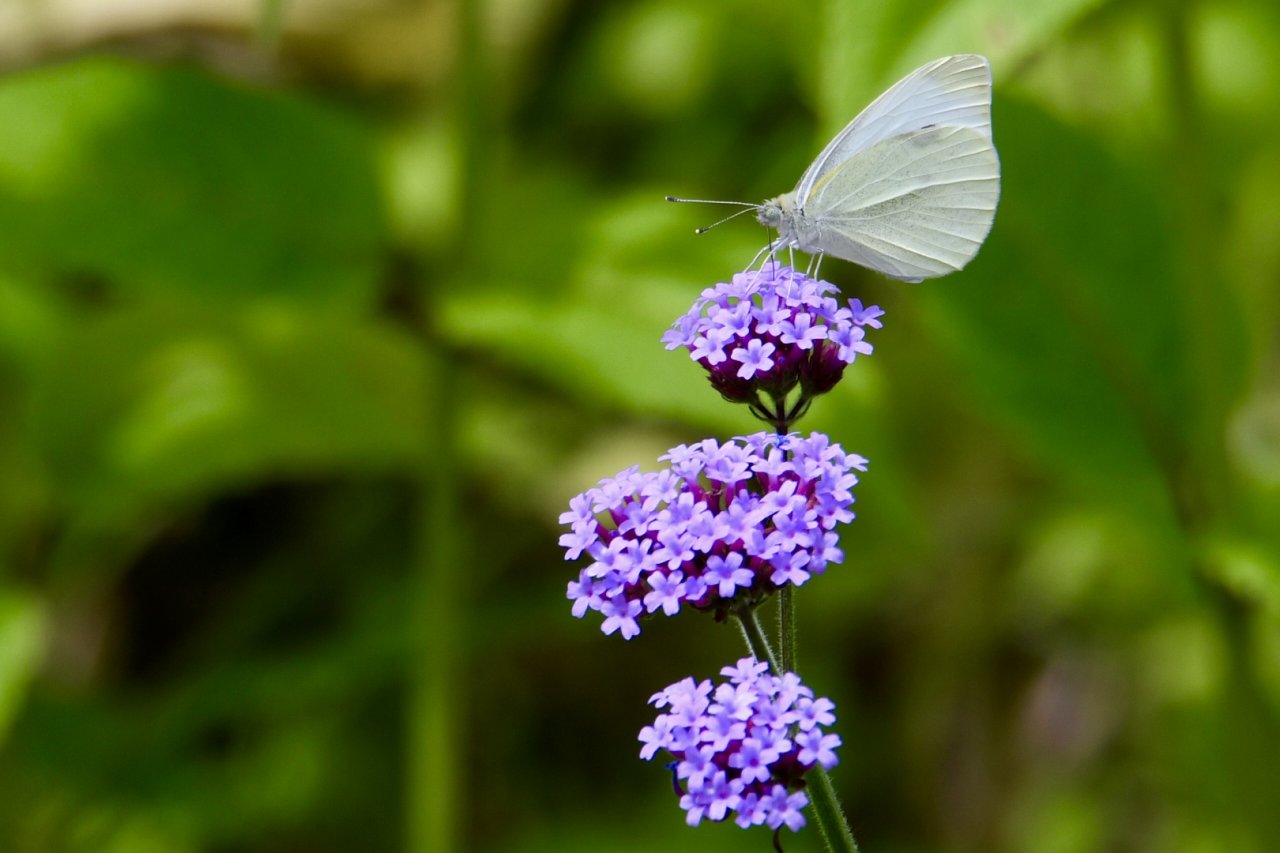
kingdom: Animalia
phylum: Arthropoda
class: Insecta
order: Lepidoptera
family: Pieridae
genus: Pieris
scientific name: Pieris rapae
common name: Cabbage White
